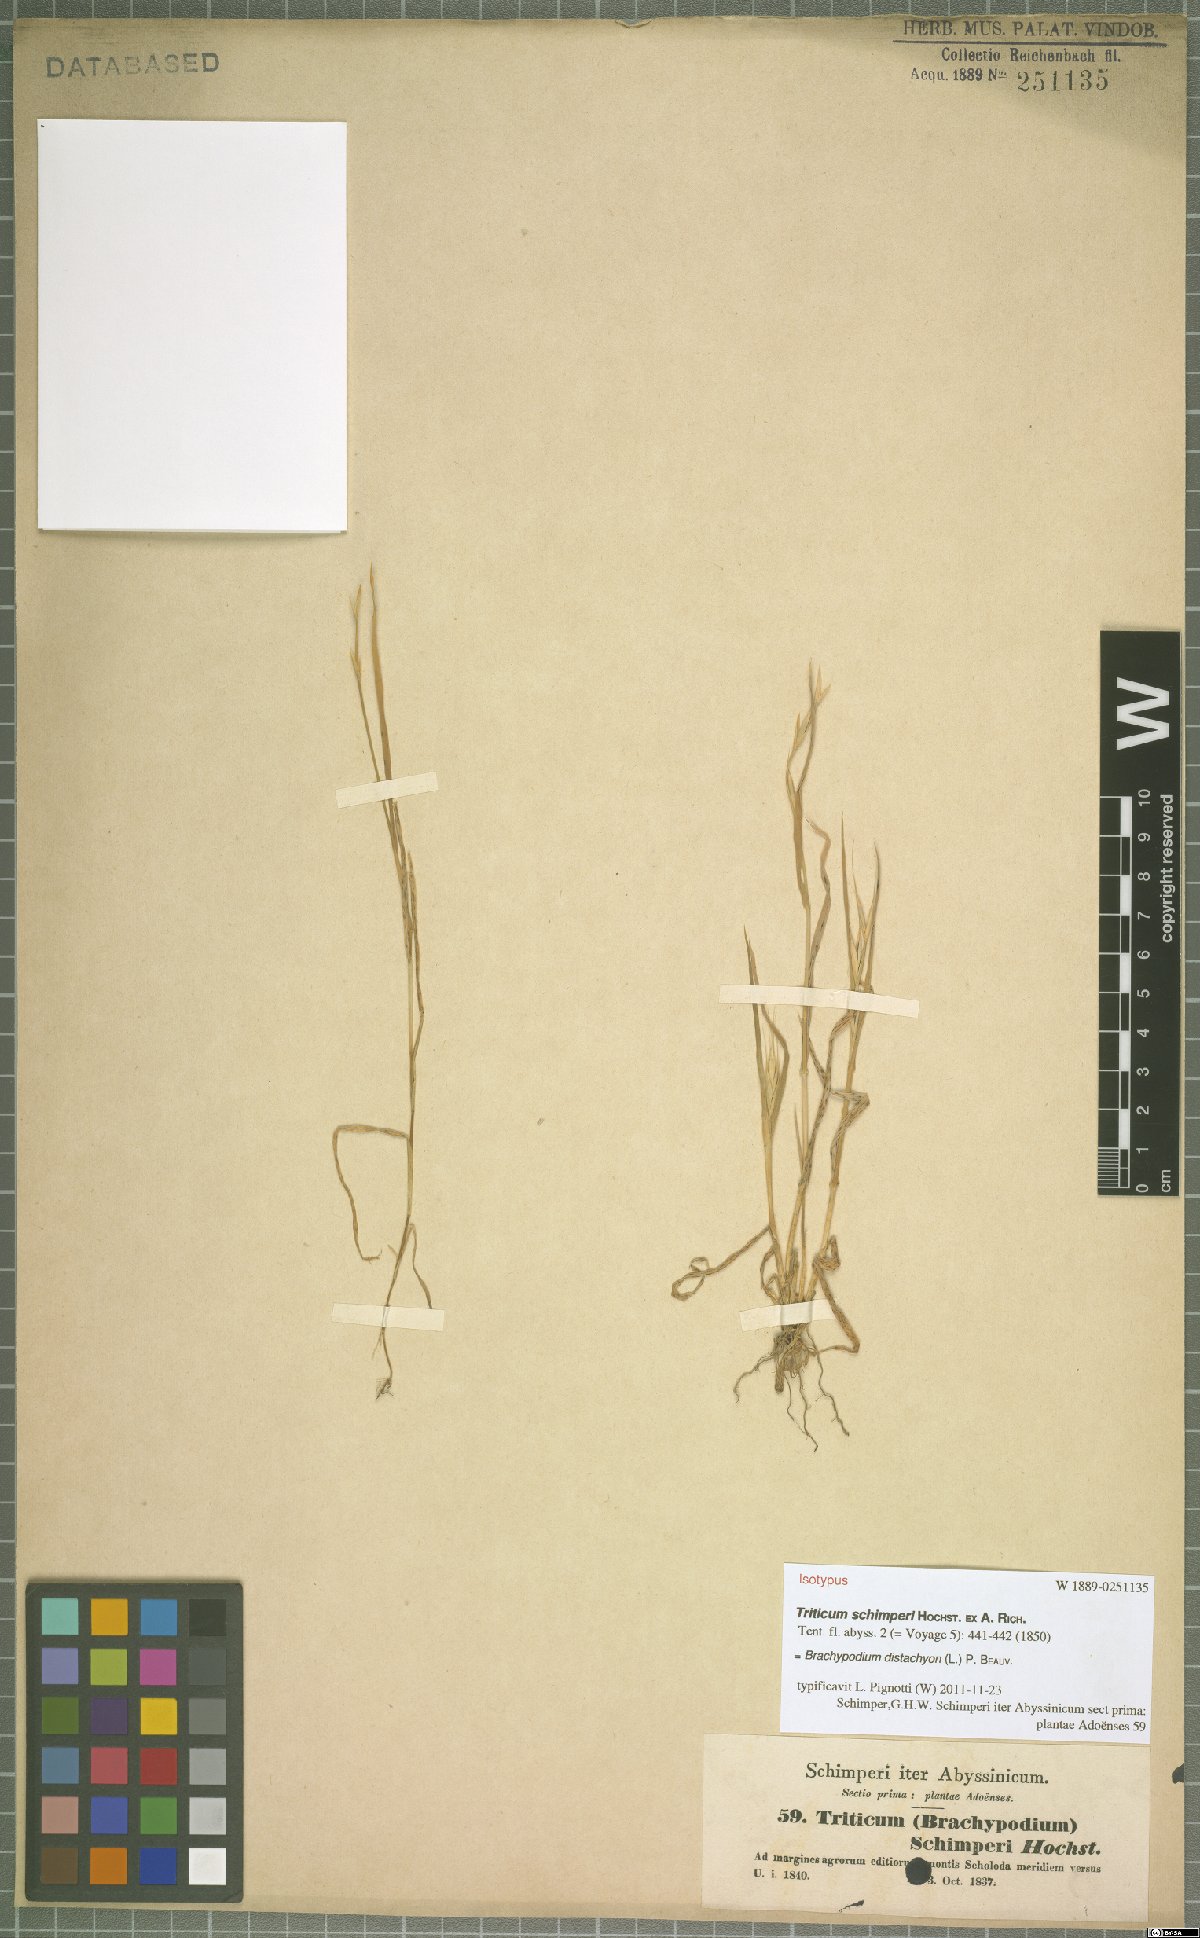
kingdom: Plantae
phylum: Tracheophyta
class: Liliopsida
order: Poales
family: Poaceae
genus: Brachypodium
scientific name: Brachypodium distachyon
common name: Stiff brome
